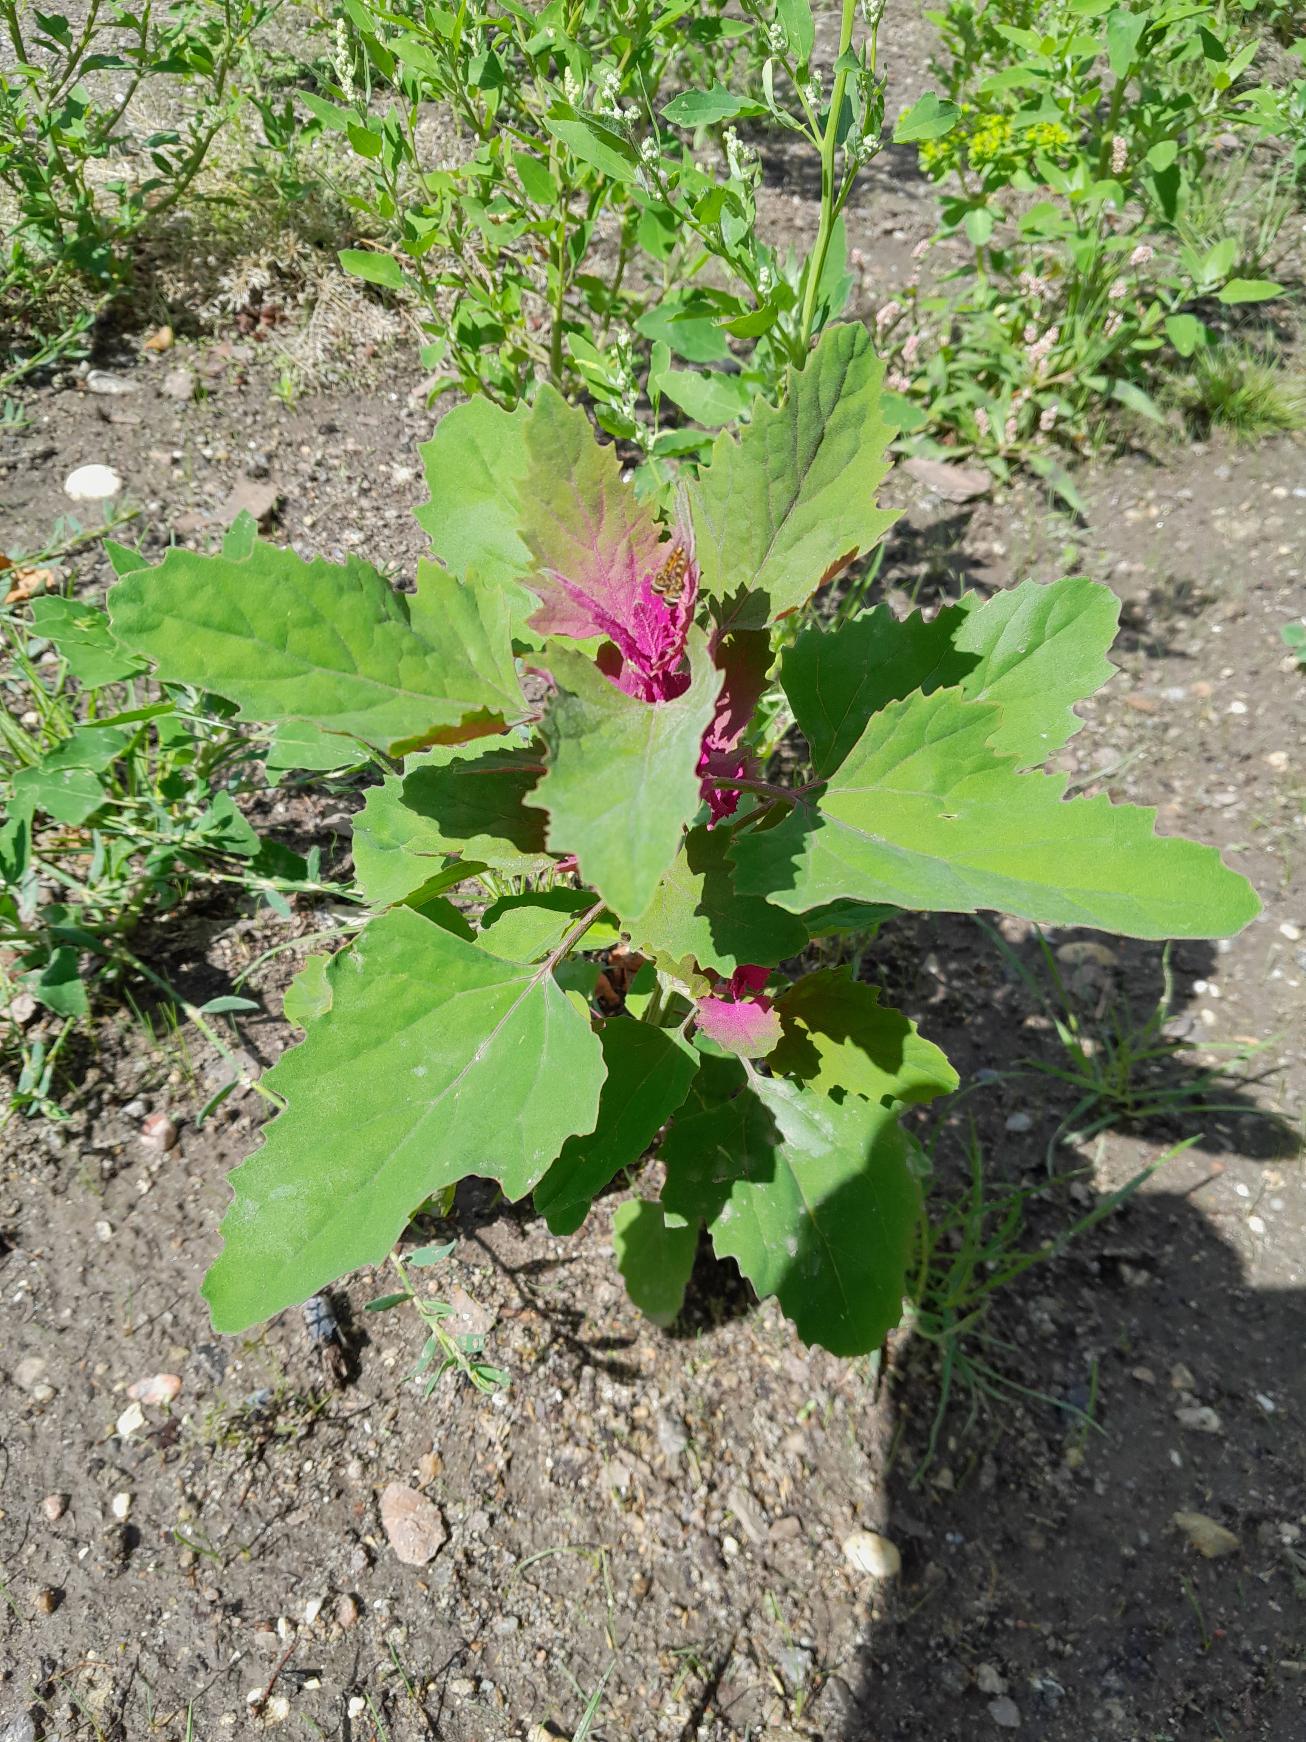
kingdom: Plantae
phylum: Tracheophyta
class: Magnoliopsida
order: Caryophyllales
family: Amaranthaceae
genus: Chenopodium
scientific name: Chenopodium giganteum
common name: Kæmpe-gåsefod
